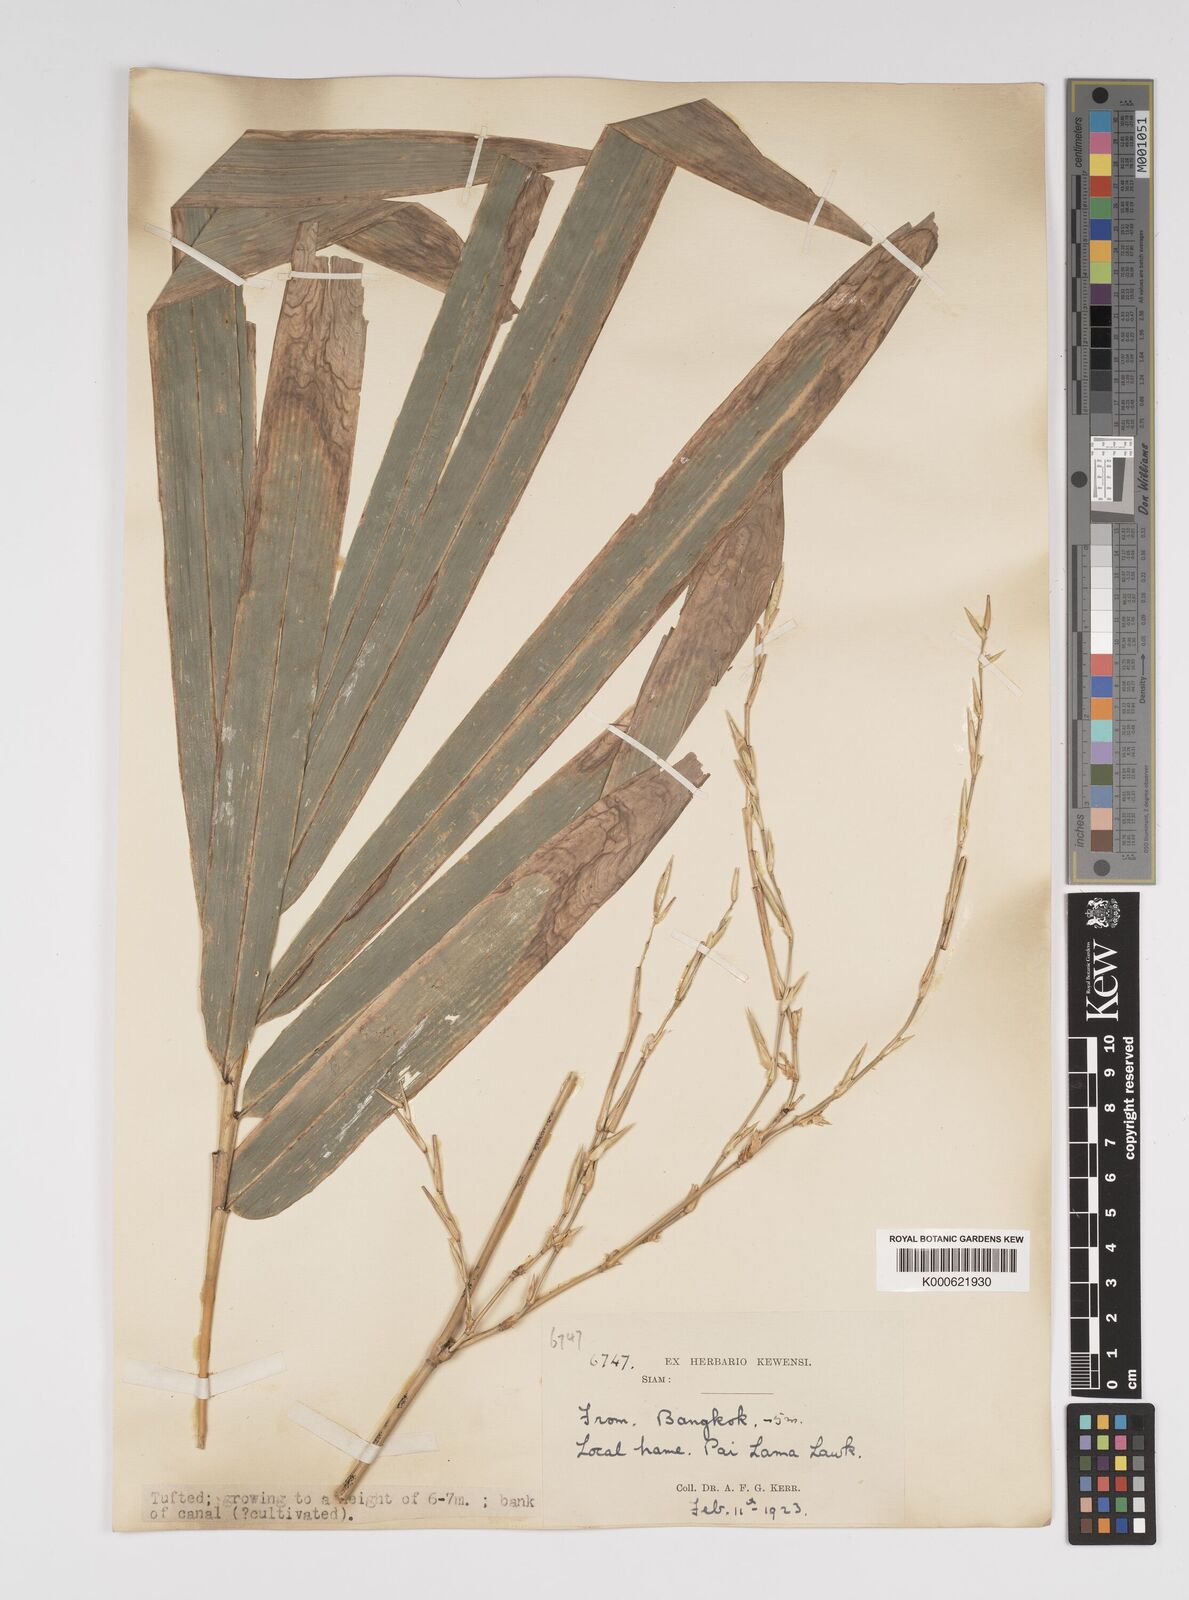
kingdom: Plantae
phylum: Tracheophyta
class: Liliopsida
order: Poales
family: Poaceae
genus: Bambusa
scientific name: Bambusa
